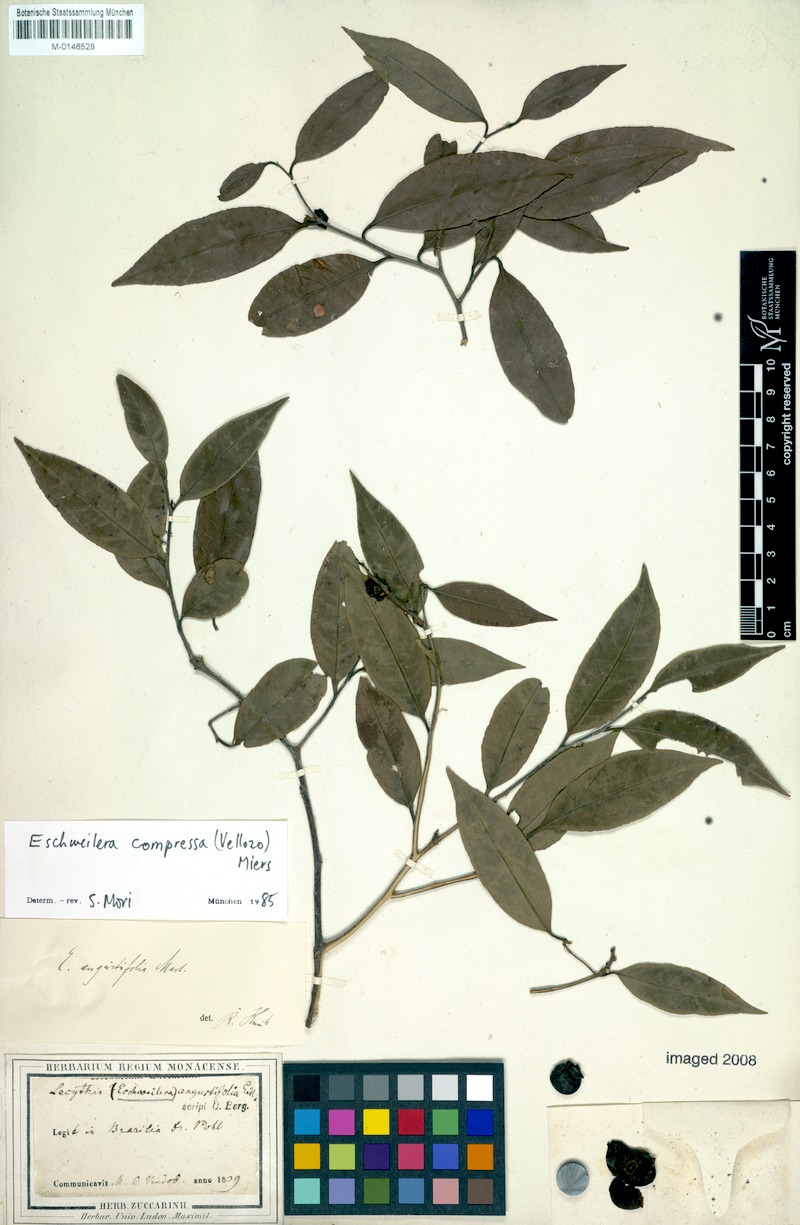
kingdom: Plantae
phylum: Tracheophyta
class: Magnoliopsida
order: Ericales
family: Lecythidaceae
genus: Eschweilera
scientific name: Eschweilera compressa
